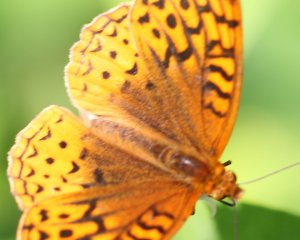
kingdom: Animalia
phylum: Arthropoda
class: Insecta
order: Lepidoptera
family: Nymphalidae
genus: Speyeria
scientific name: Speyeria cybele
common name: Great Spangled Fritillary
